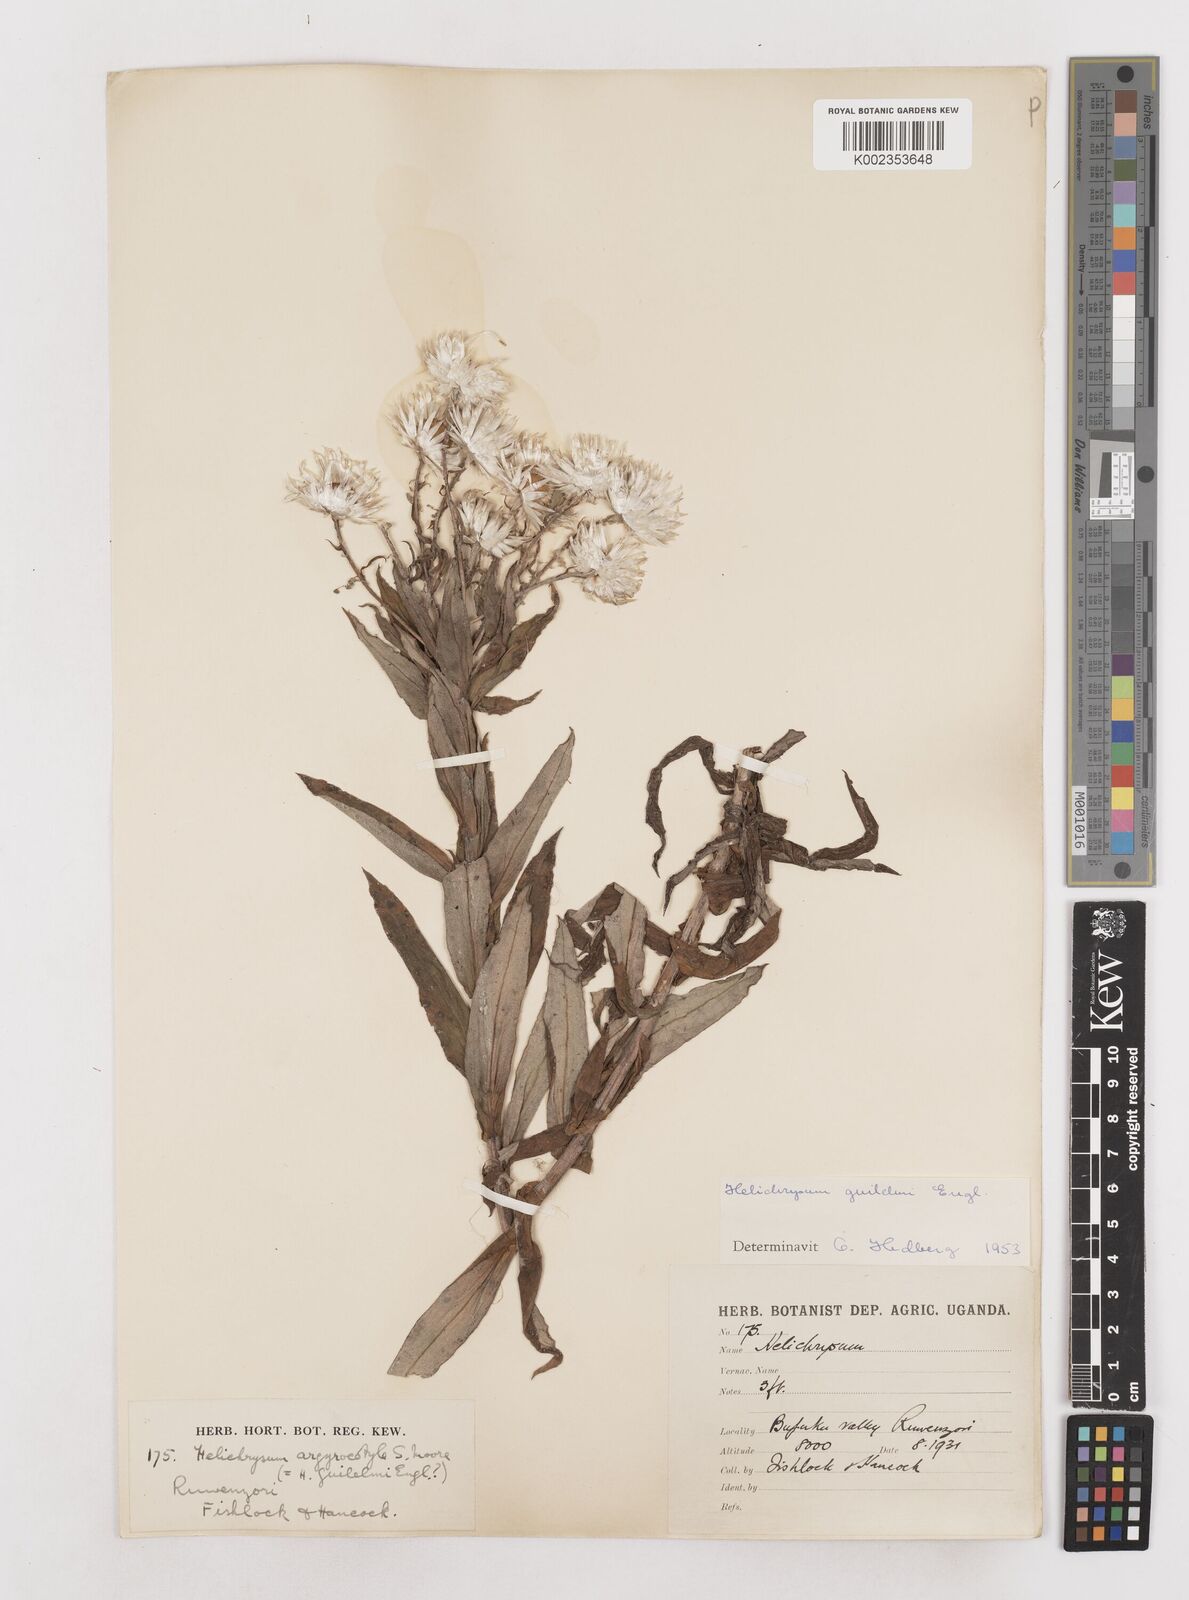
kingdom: Plantae
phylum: Tracheophyta
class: Magnoliopsida
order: Asterales
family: Asteraceae
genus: Helichrysum
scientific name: Helichrysum formosissimum
